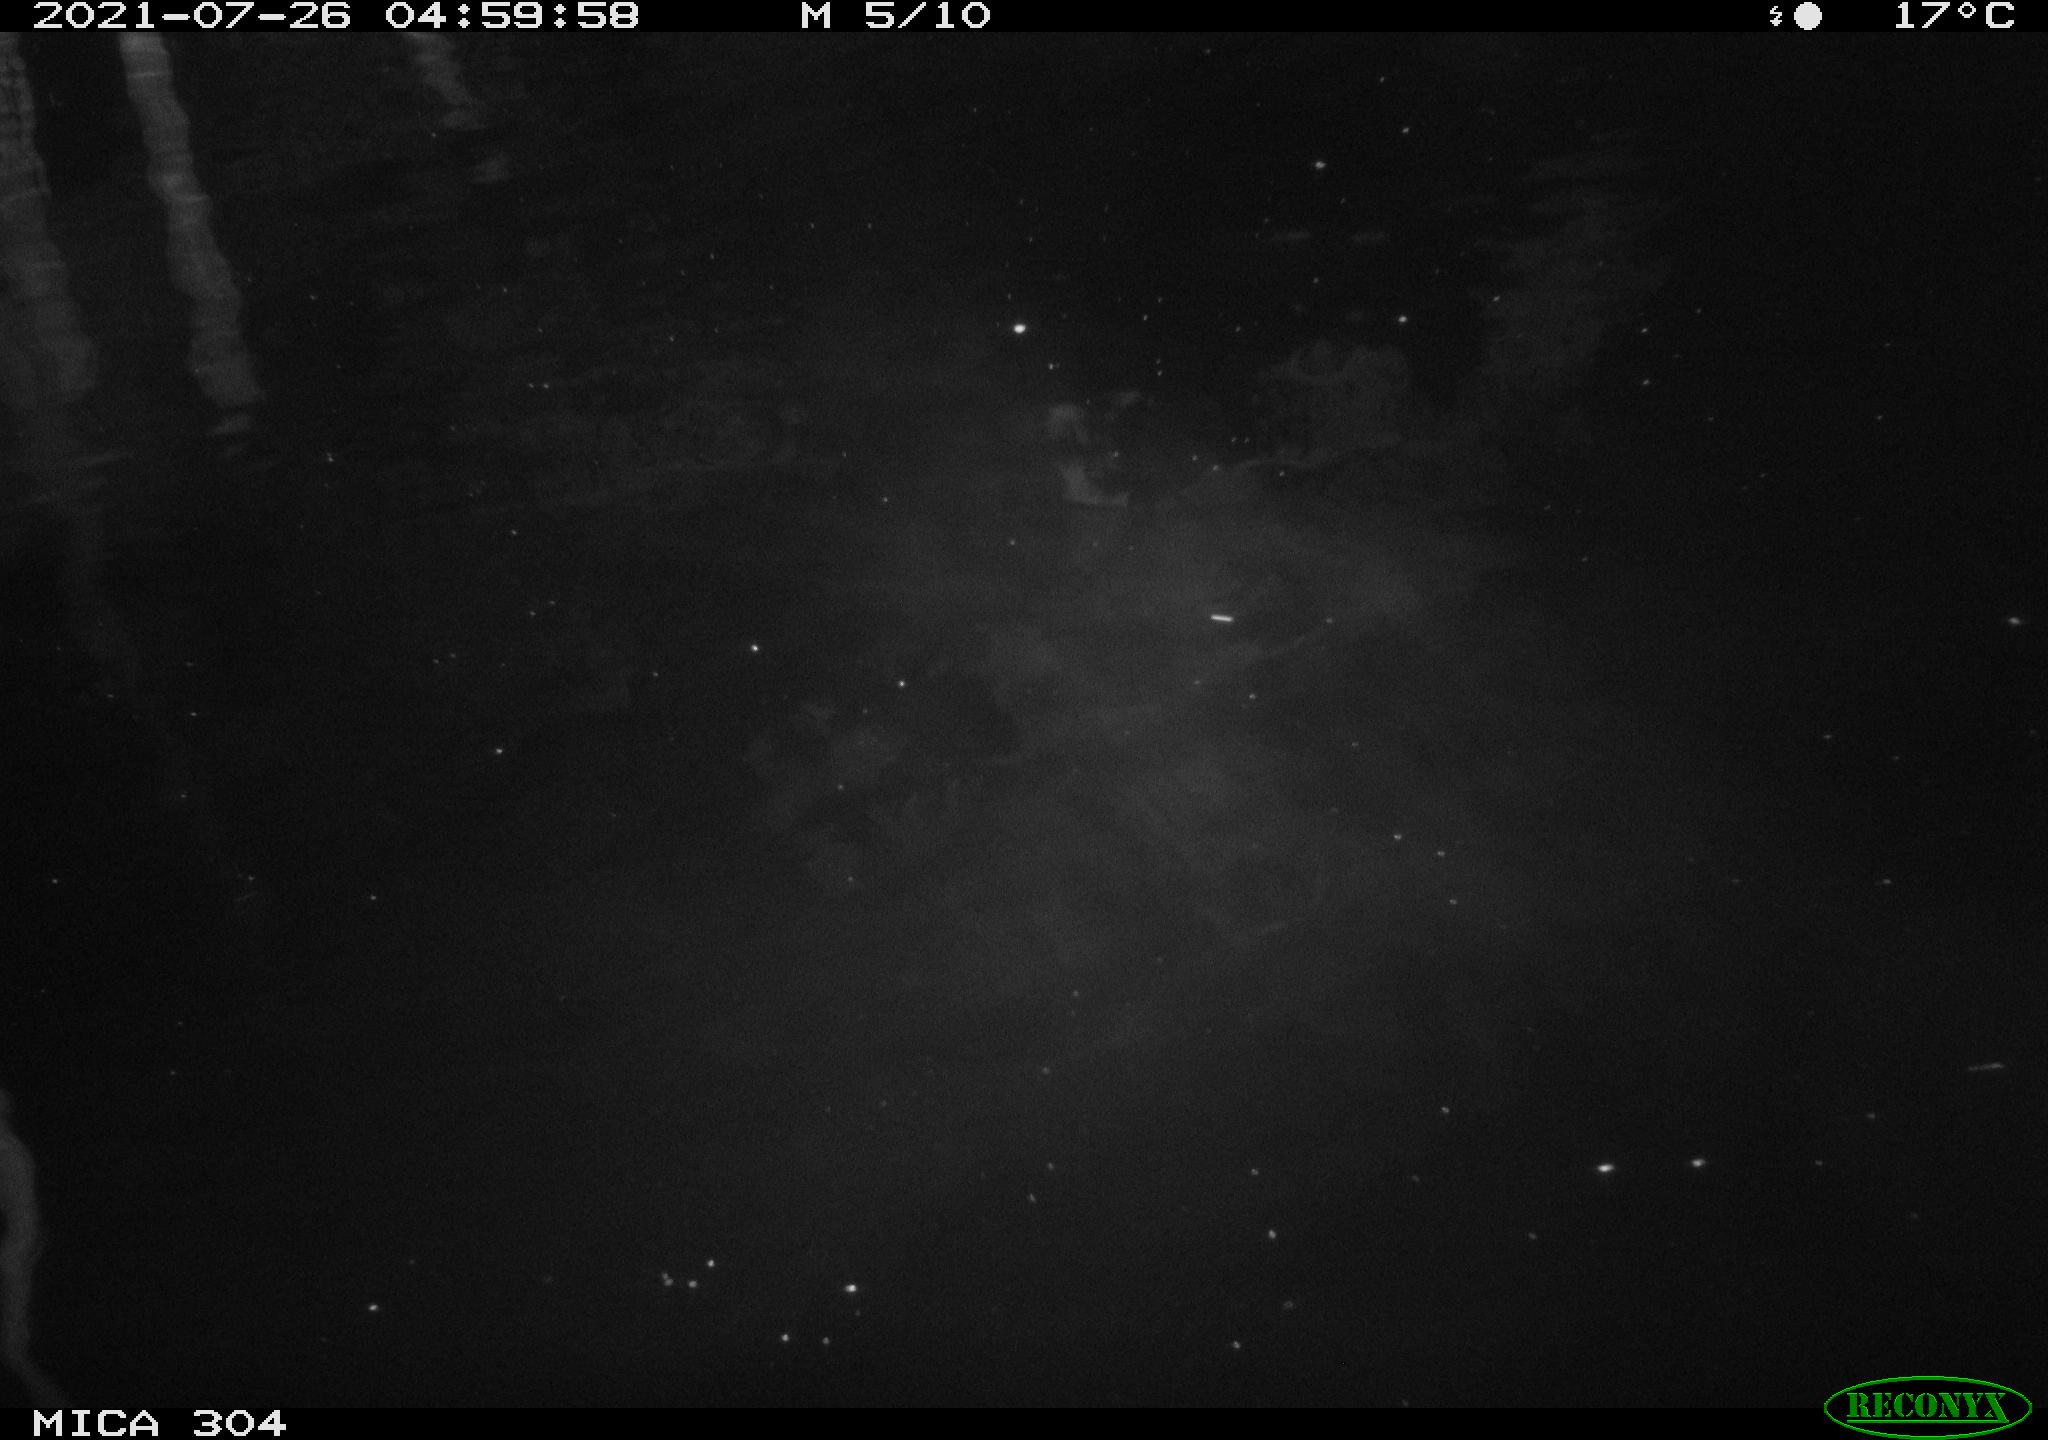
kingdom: Animalia
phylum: Chordata
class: Mammalia
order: Rodentia
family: Muridae
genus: Rattus
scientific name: Rattus norvegicus
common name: Brown rat
